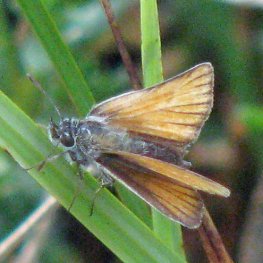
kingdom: Animalia
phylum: Arthropoda
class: Insecta
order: Lepidoptera
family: Hesperiidae
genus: Thymelicus
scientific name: Thymelicus lineola
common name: European Skipper
